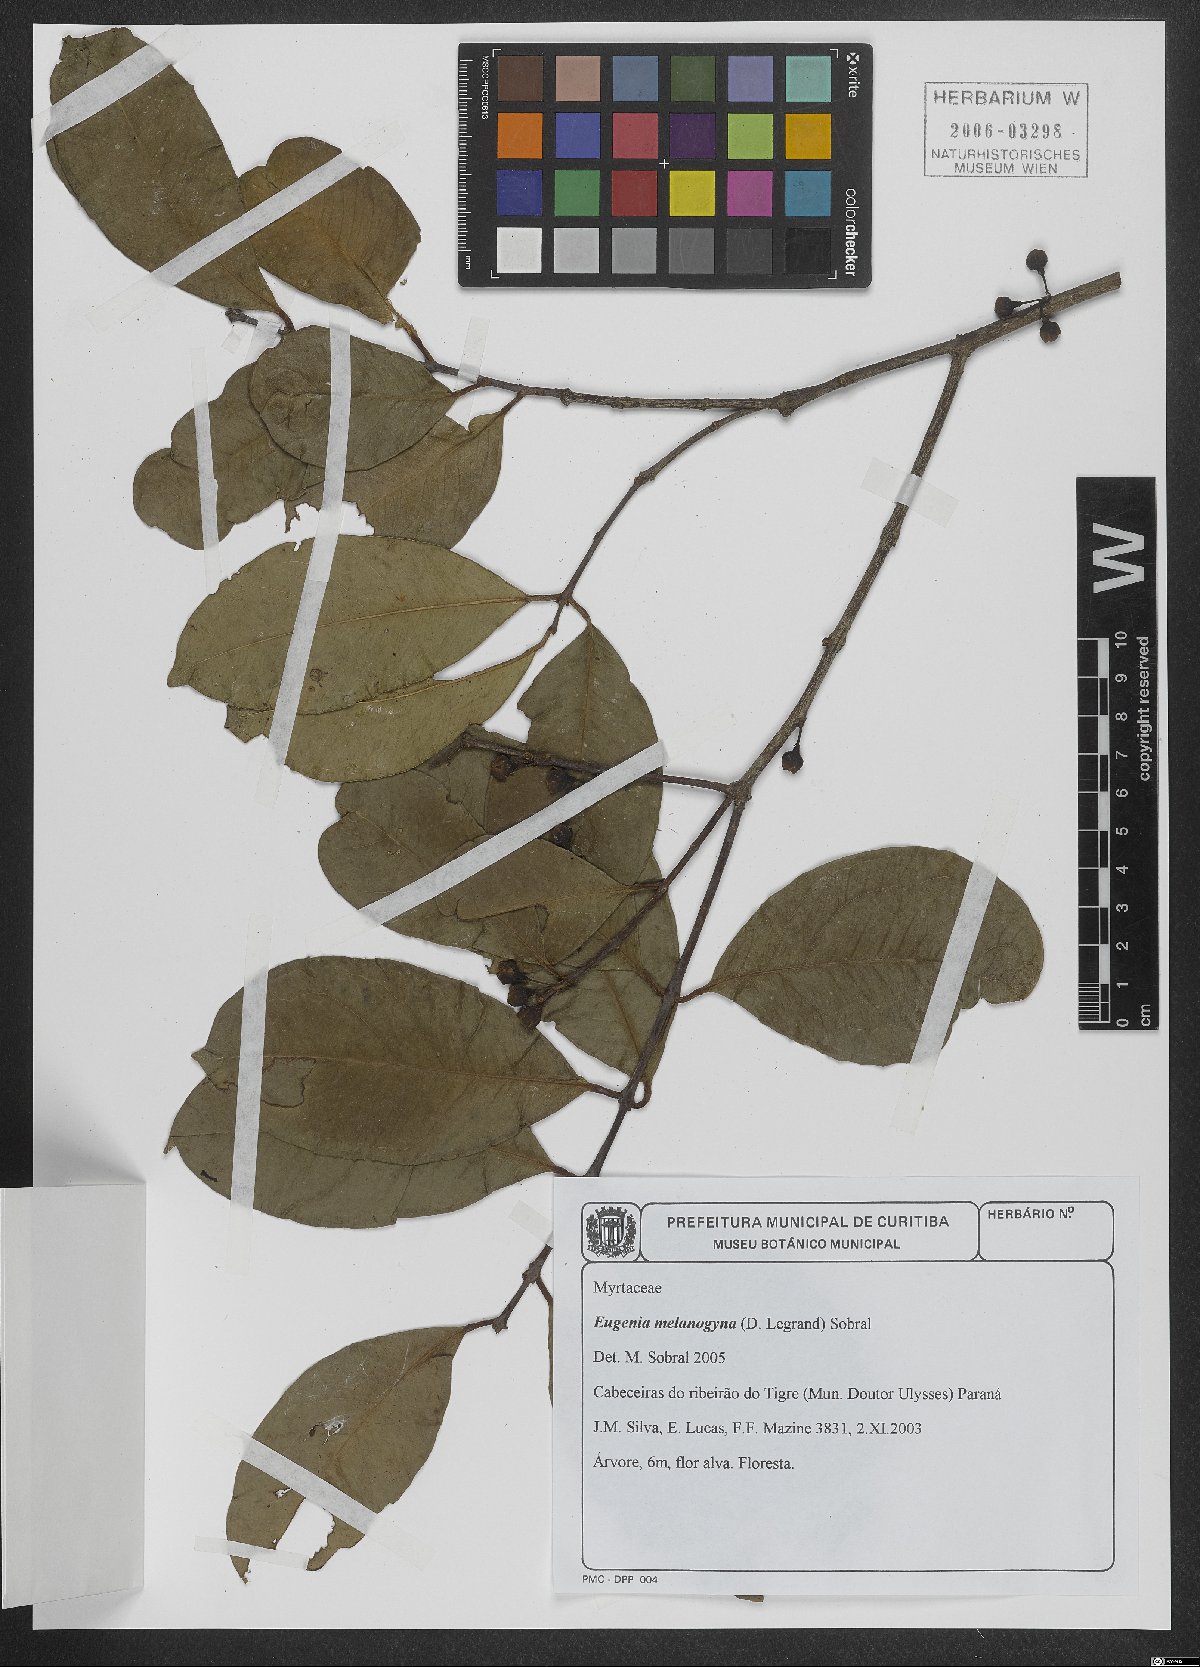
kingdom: Plantae
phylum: Tracheophyta
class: Magnoliopsida
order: Myrtales
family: Myrtaceae
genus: Eugenia
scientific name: Eugenia melanogyna
